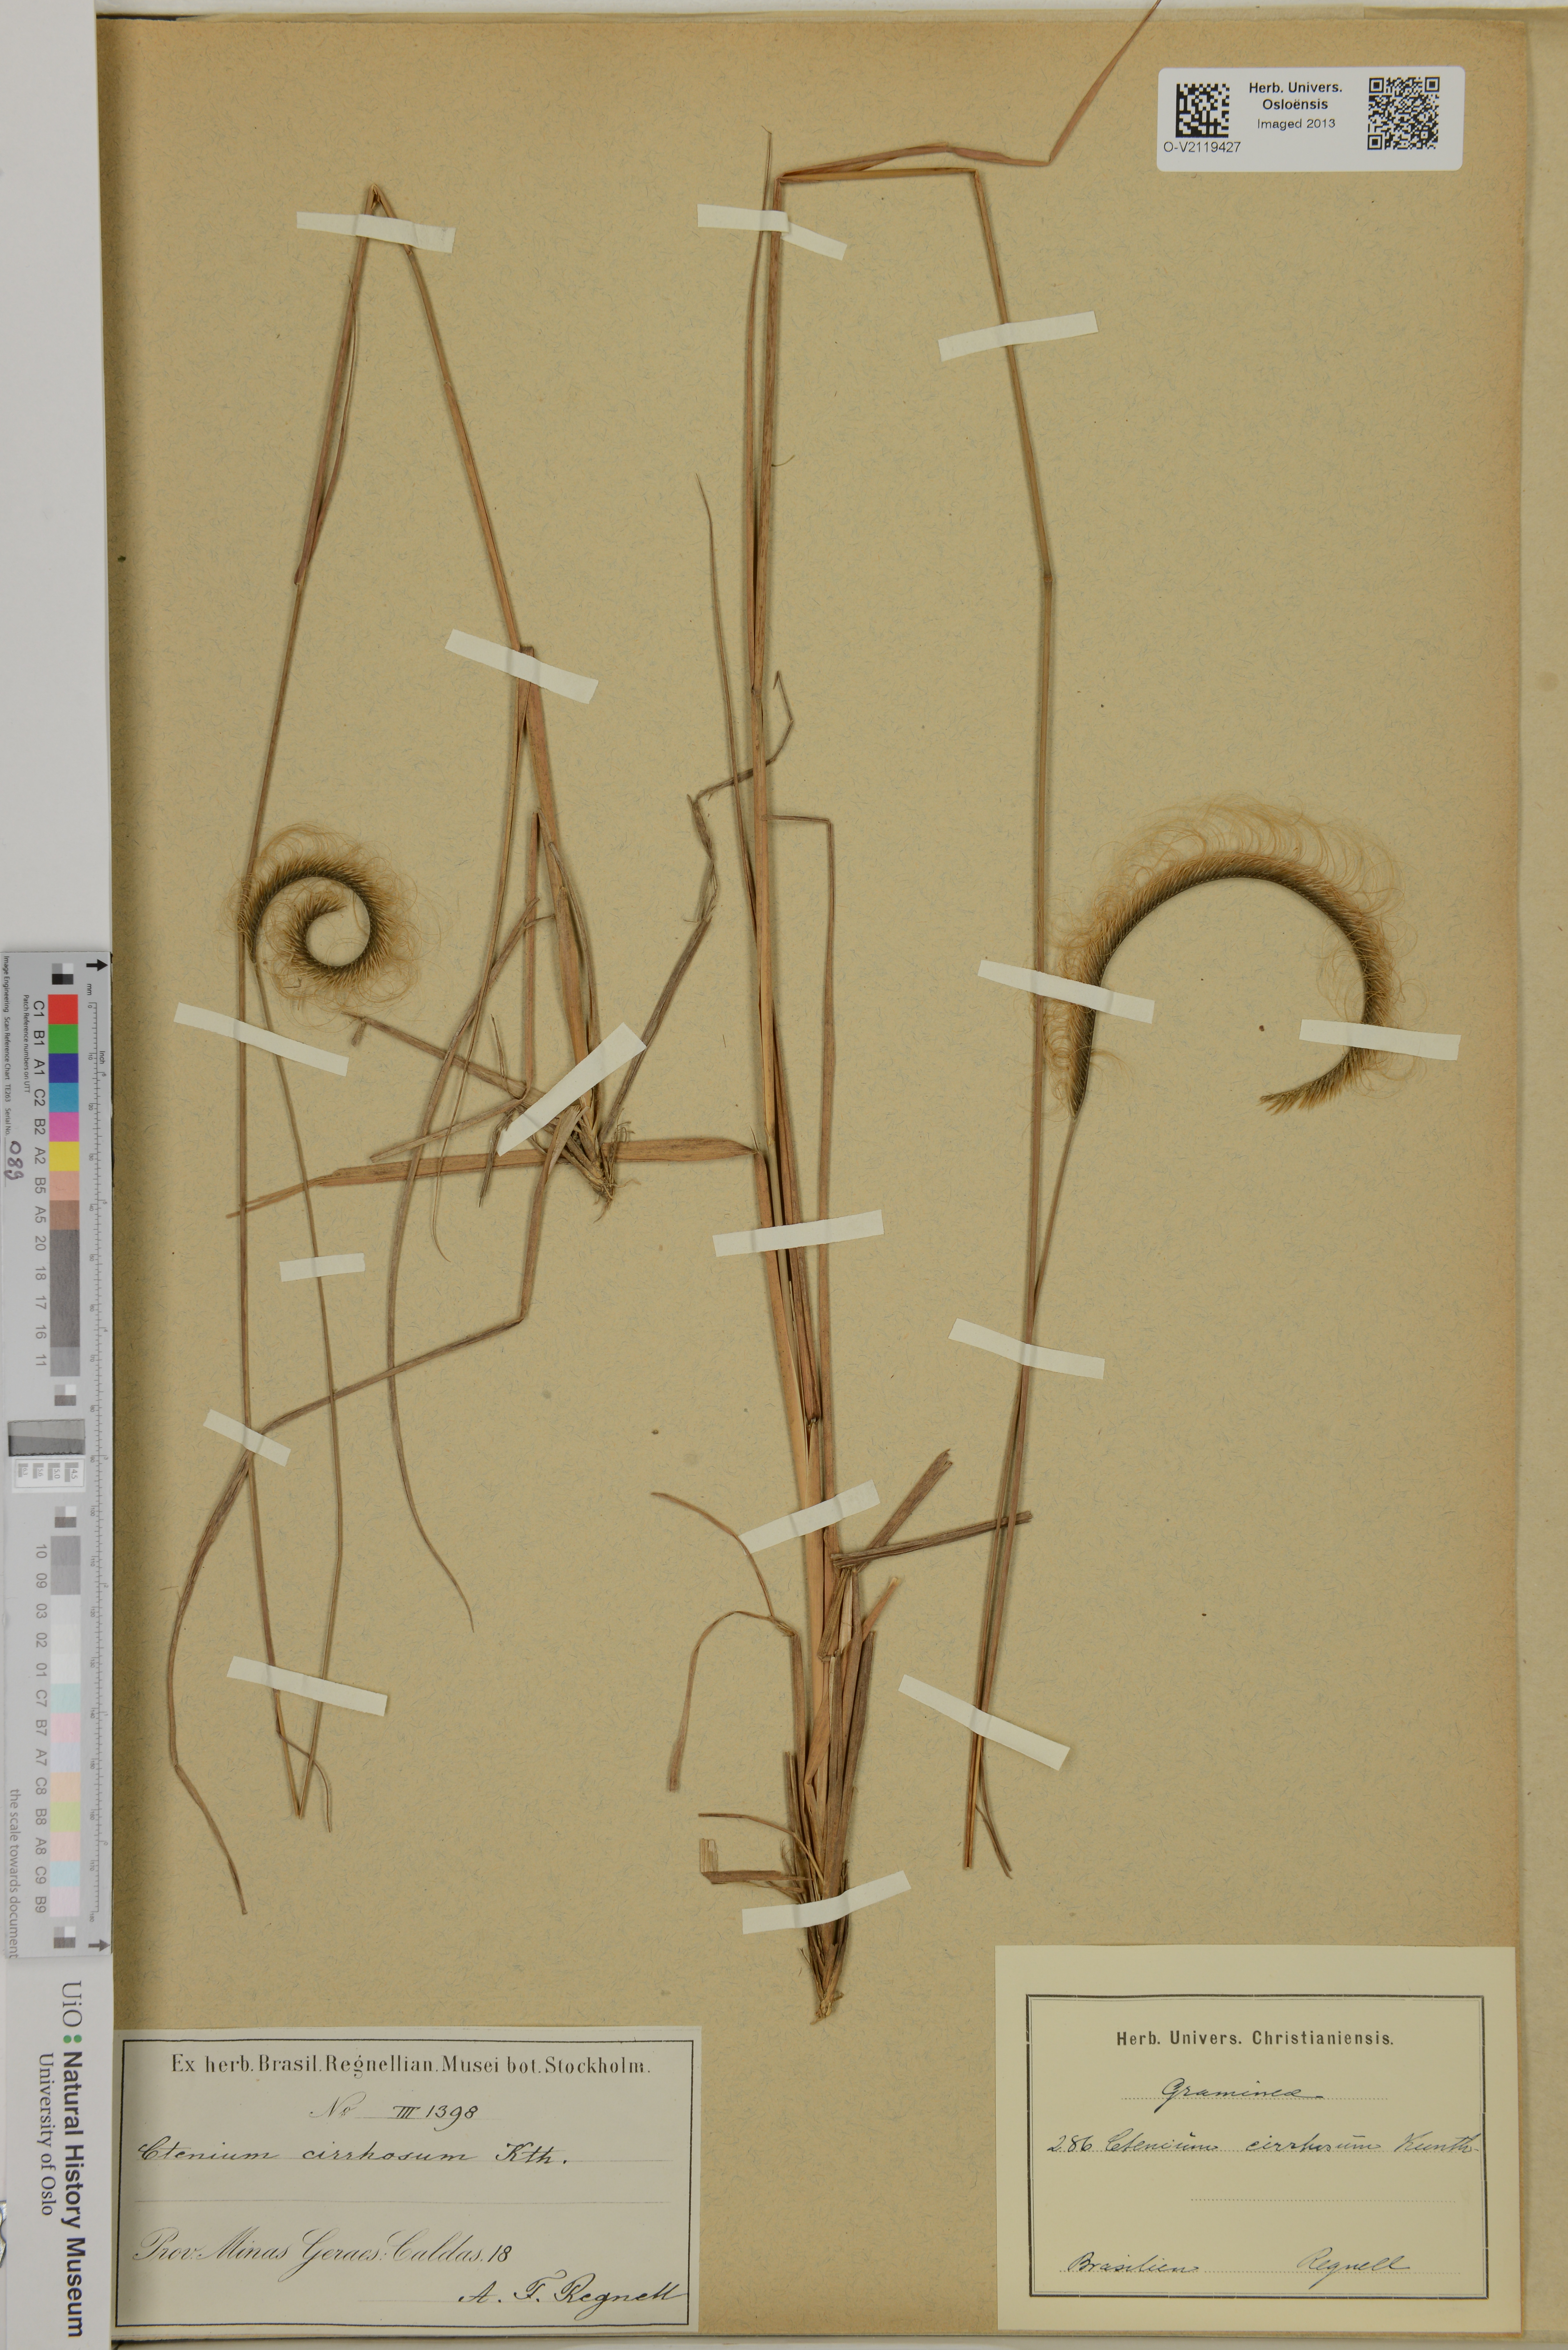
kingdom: Plantae
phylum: Tracheophyta
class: Liliopsida
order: Poales
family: Poaceae
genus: Ctenium
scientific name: Ctenium cirrhosum
